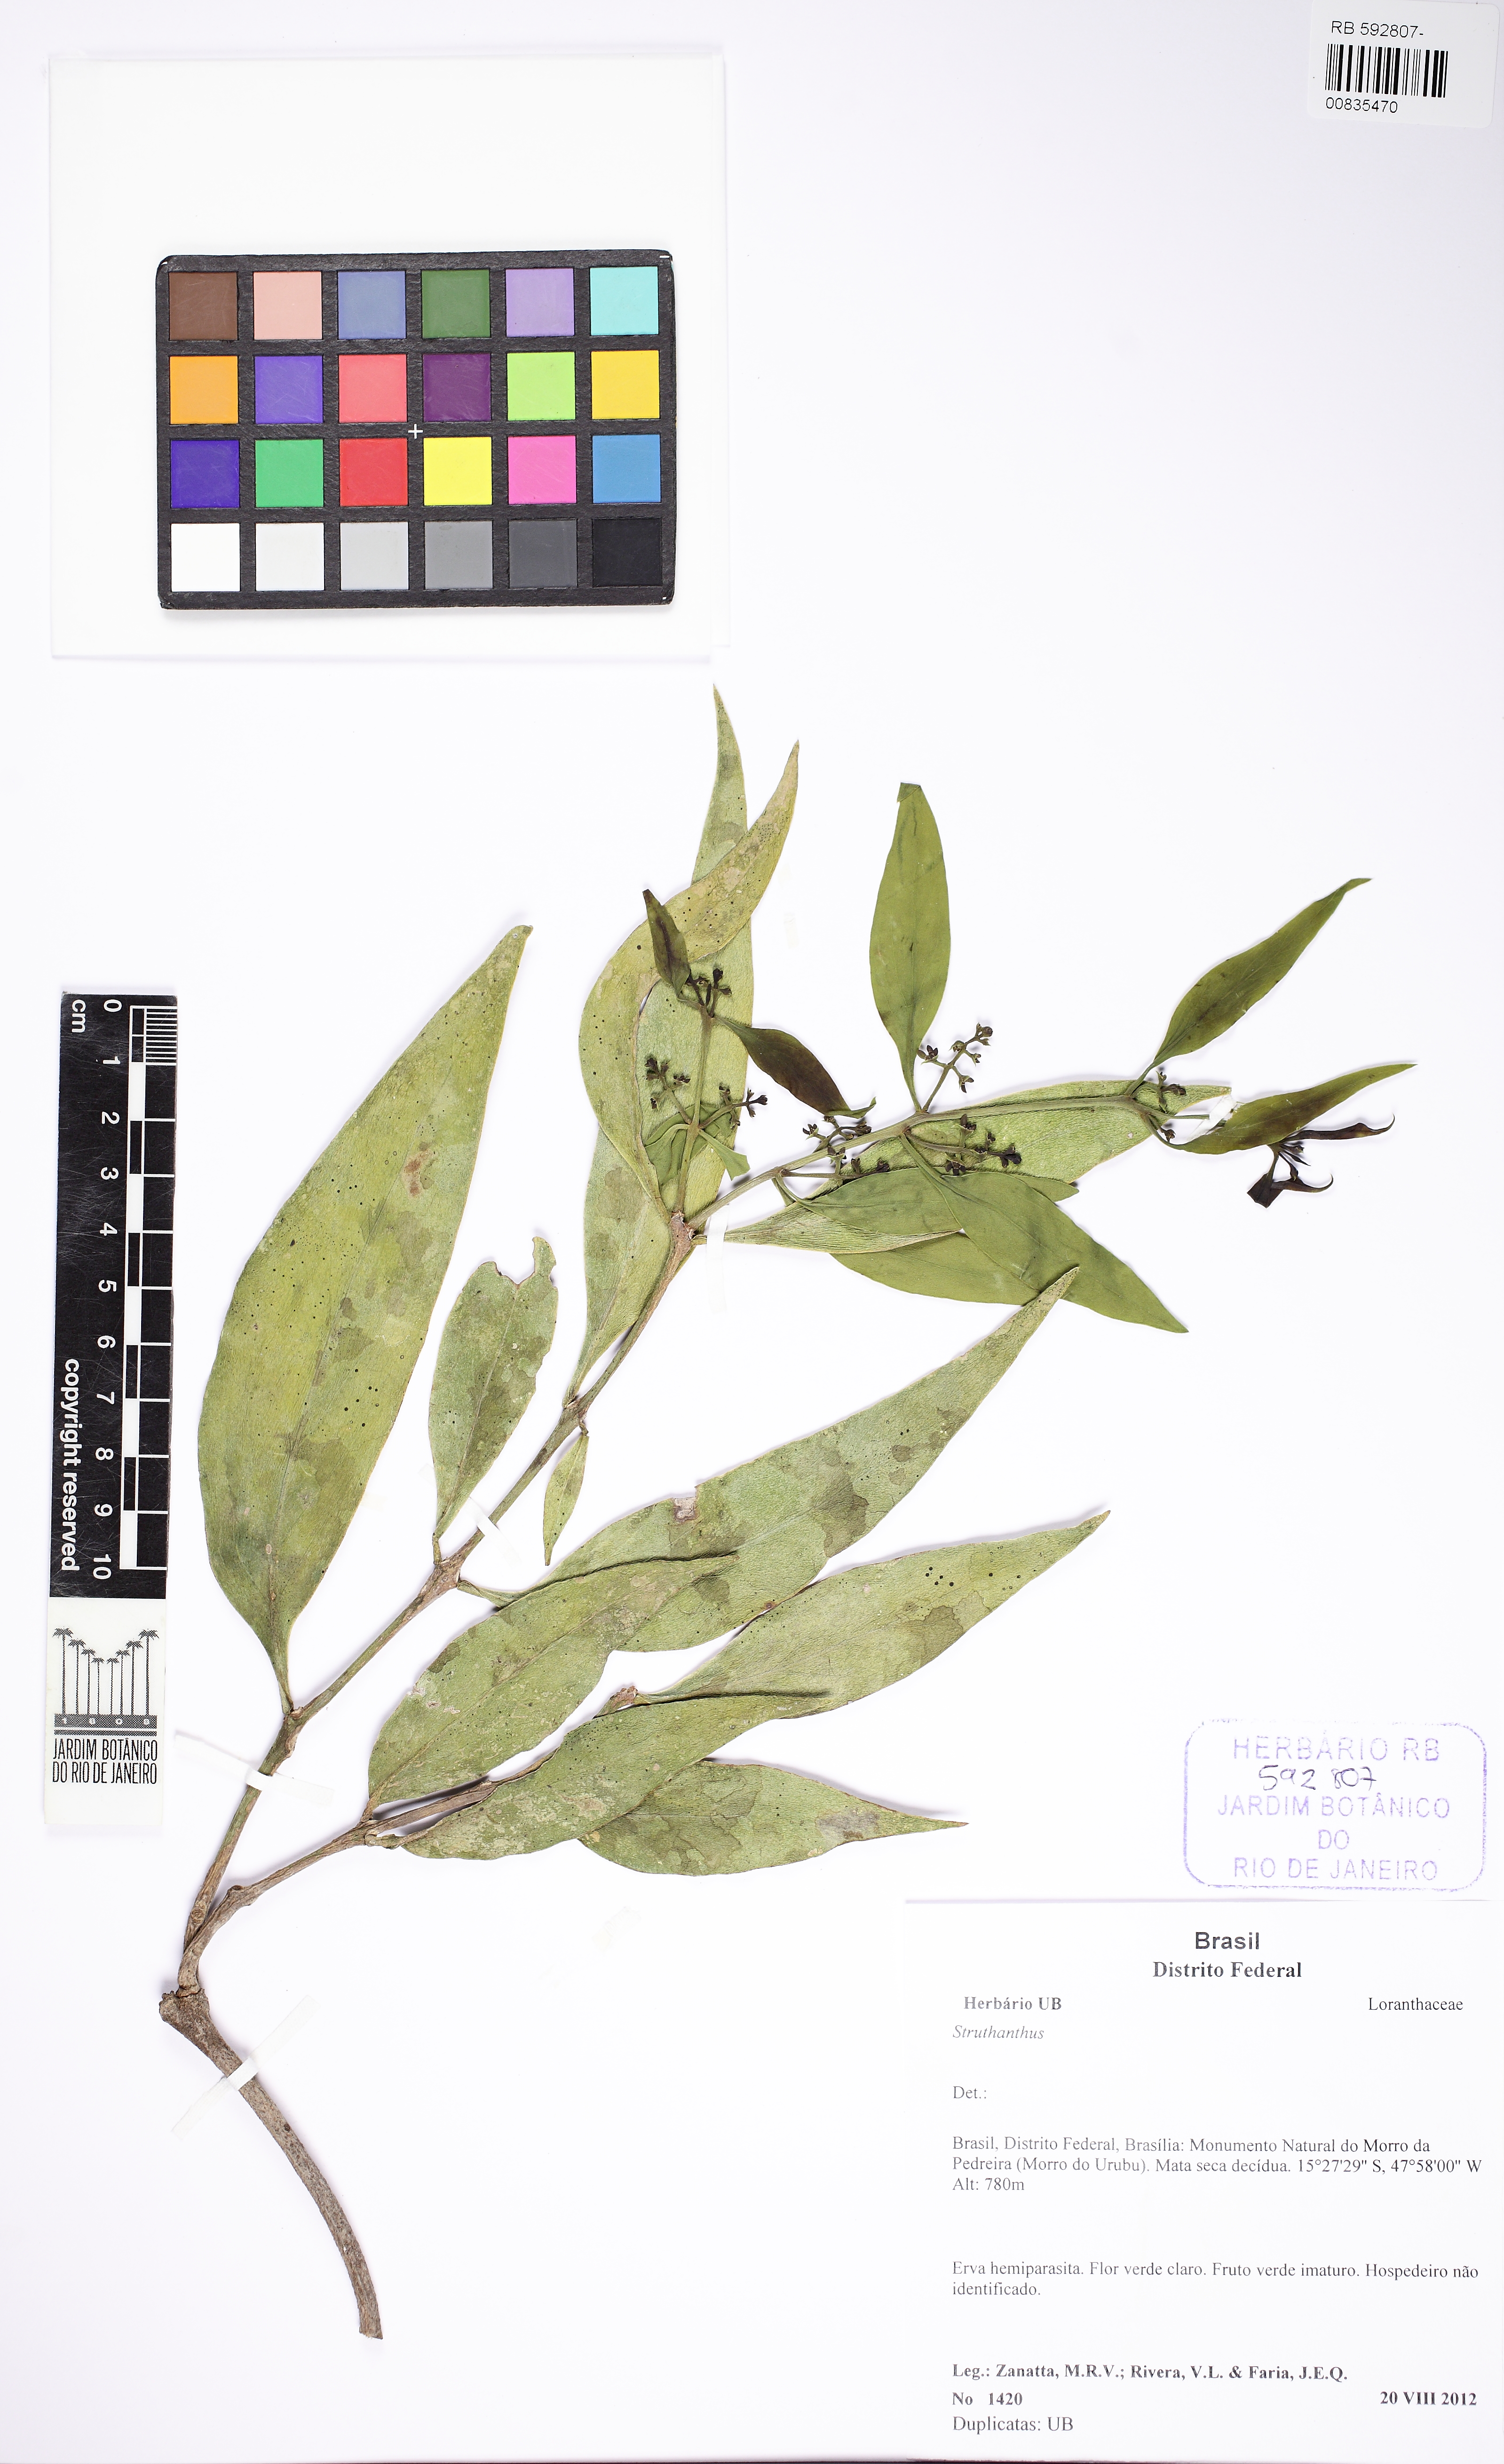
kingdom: Plantae
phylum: Tracheophyta
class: Magnoliopsida
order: Santalales
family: Loranthaceae
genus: Struthanthus
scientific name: Struthanthus
